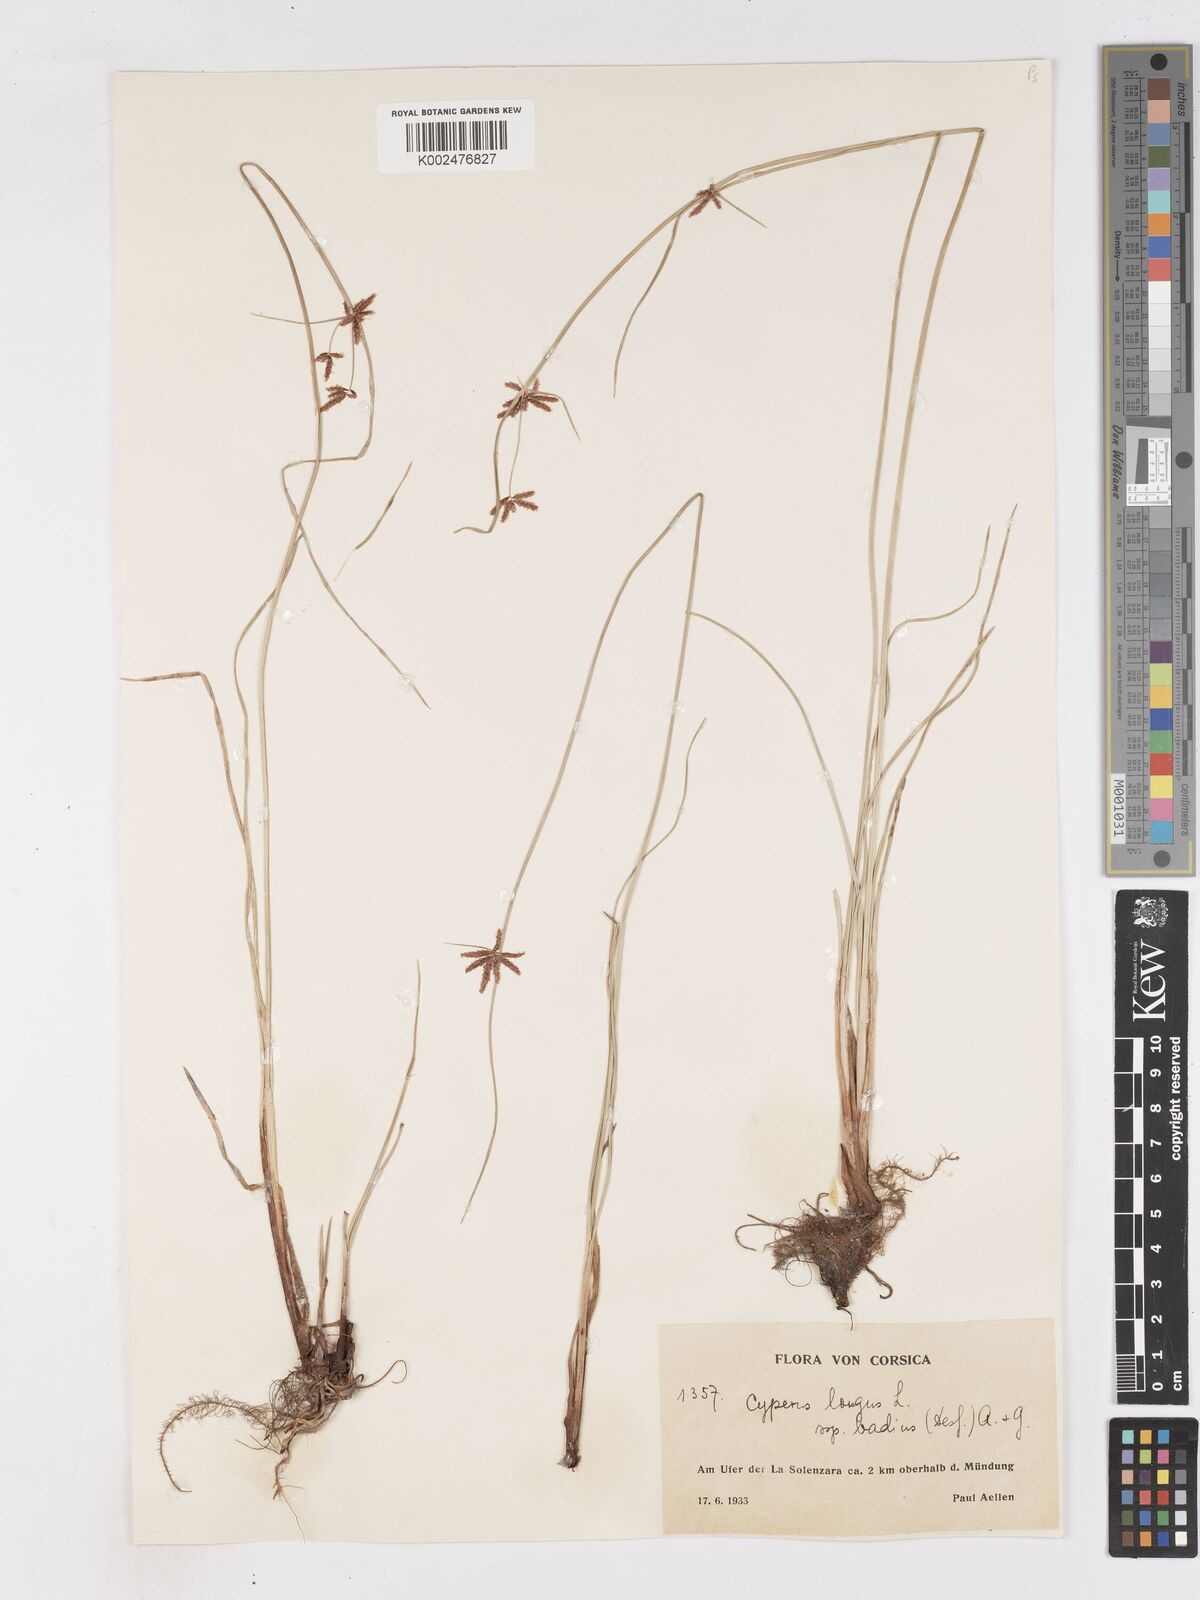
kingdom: Plantae
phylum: Tracheophyta
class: Liliopsida
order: Poales
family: Cyperaceae
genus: Cyperus
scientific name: Cyperus longus
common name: Galingale
